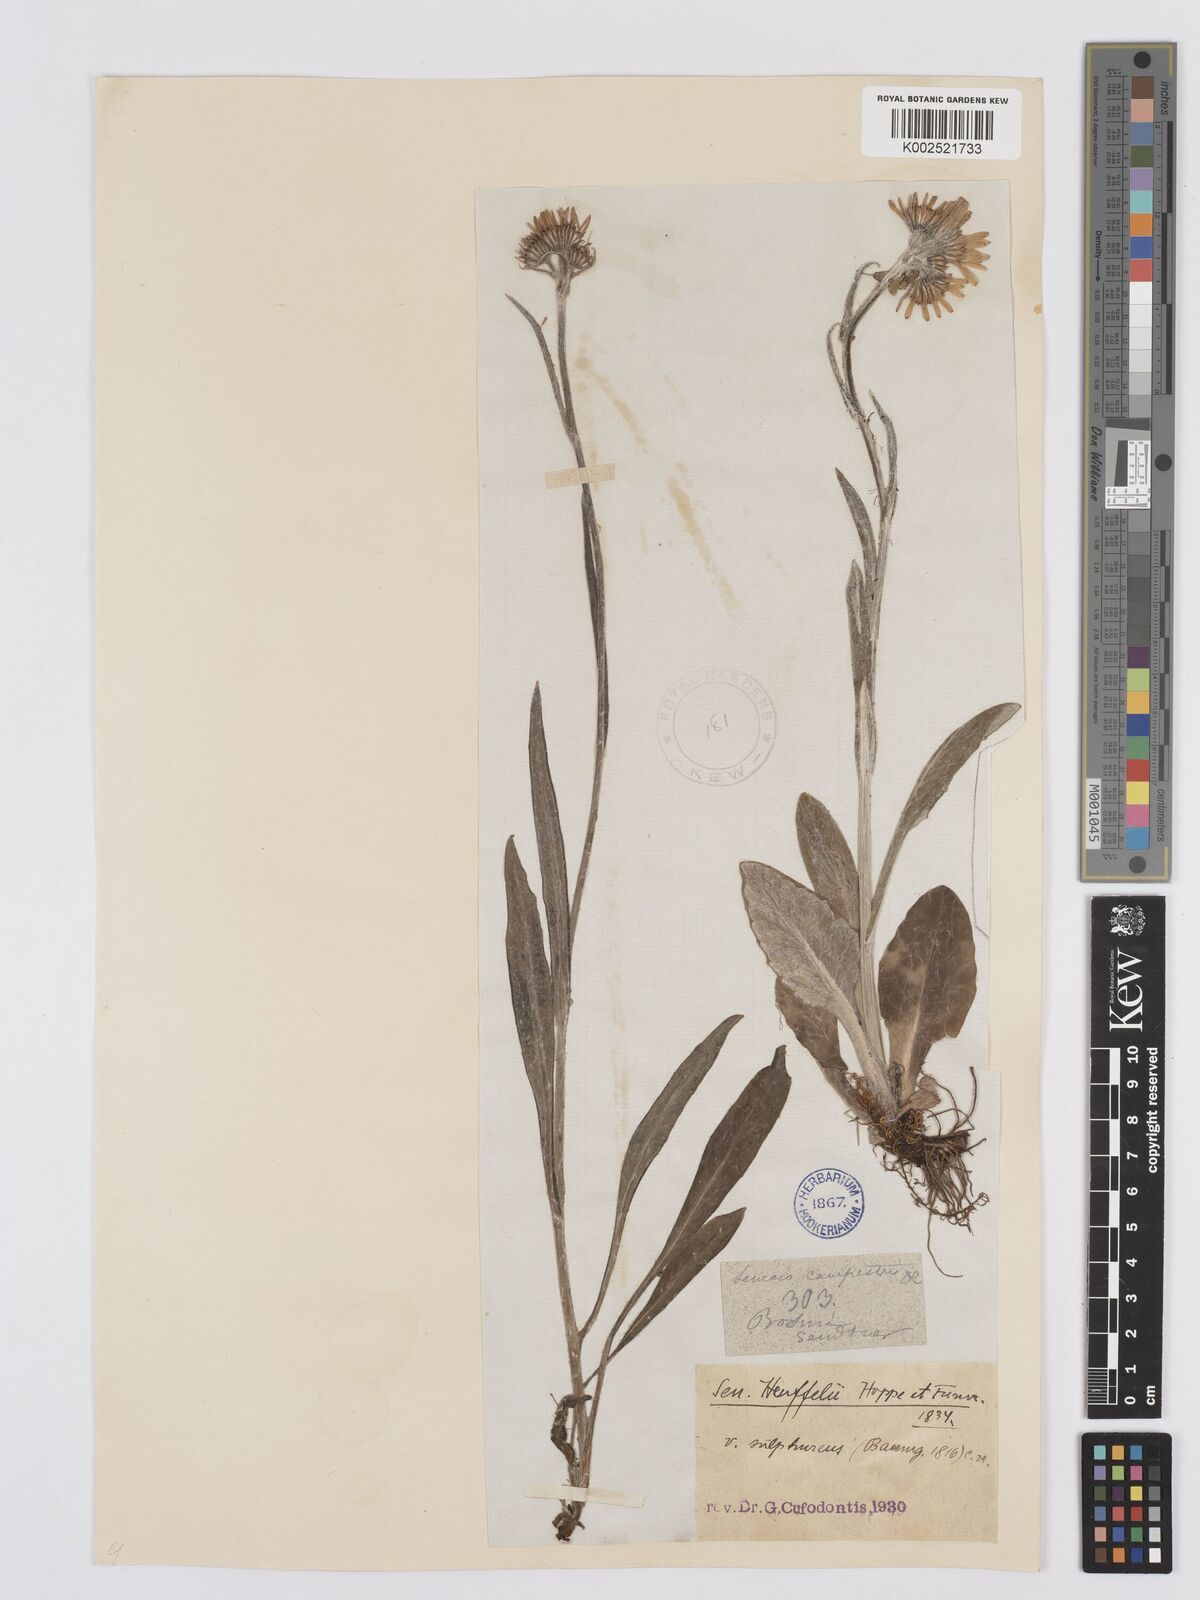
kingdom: Plantae
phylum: Tracheophyta
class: Magnoliopsida
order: Asterales
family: Asteraceae
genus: Tephroseris
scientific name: Tephroseris papposa
